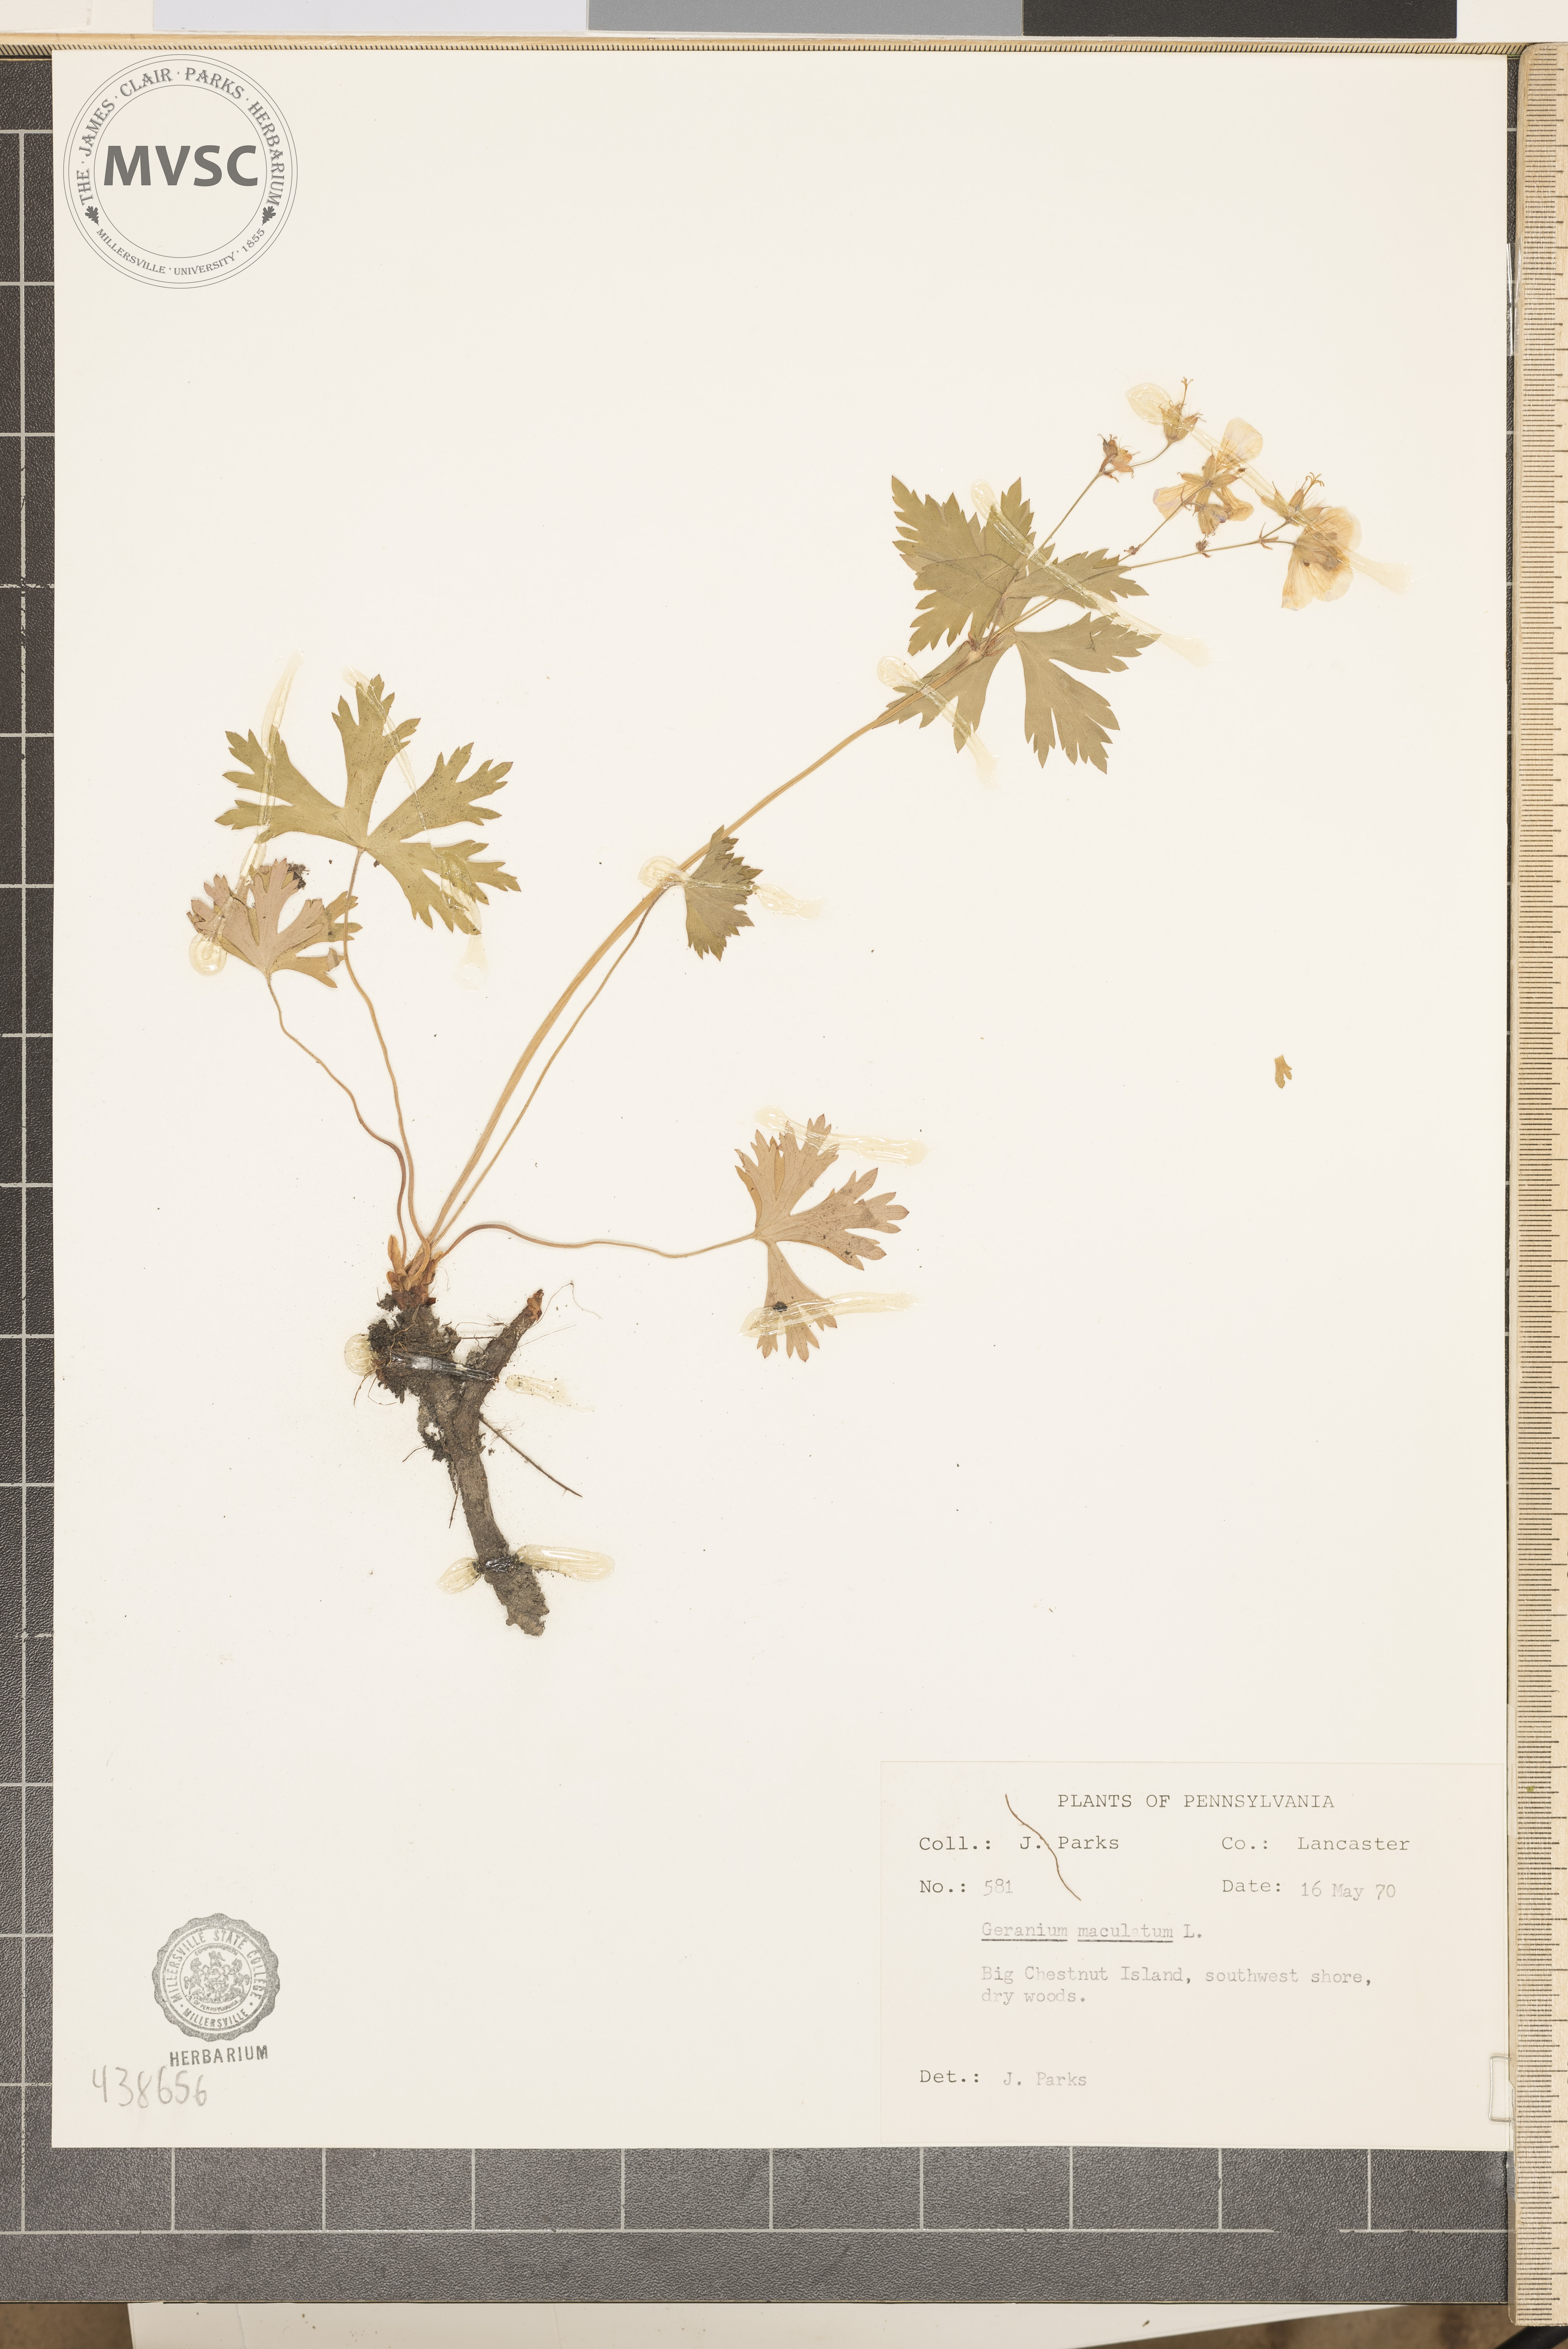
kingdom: Plantae
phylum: Tracheophyta
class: Magnoliopsida
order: Geraniales
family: Geraniaceae
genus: Geranium
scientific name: Geranium maculatum
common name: Spotted geranium
